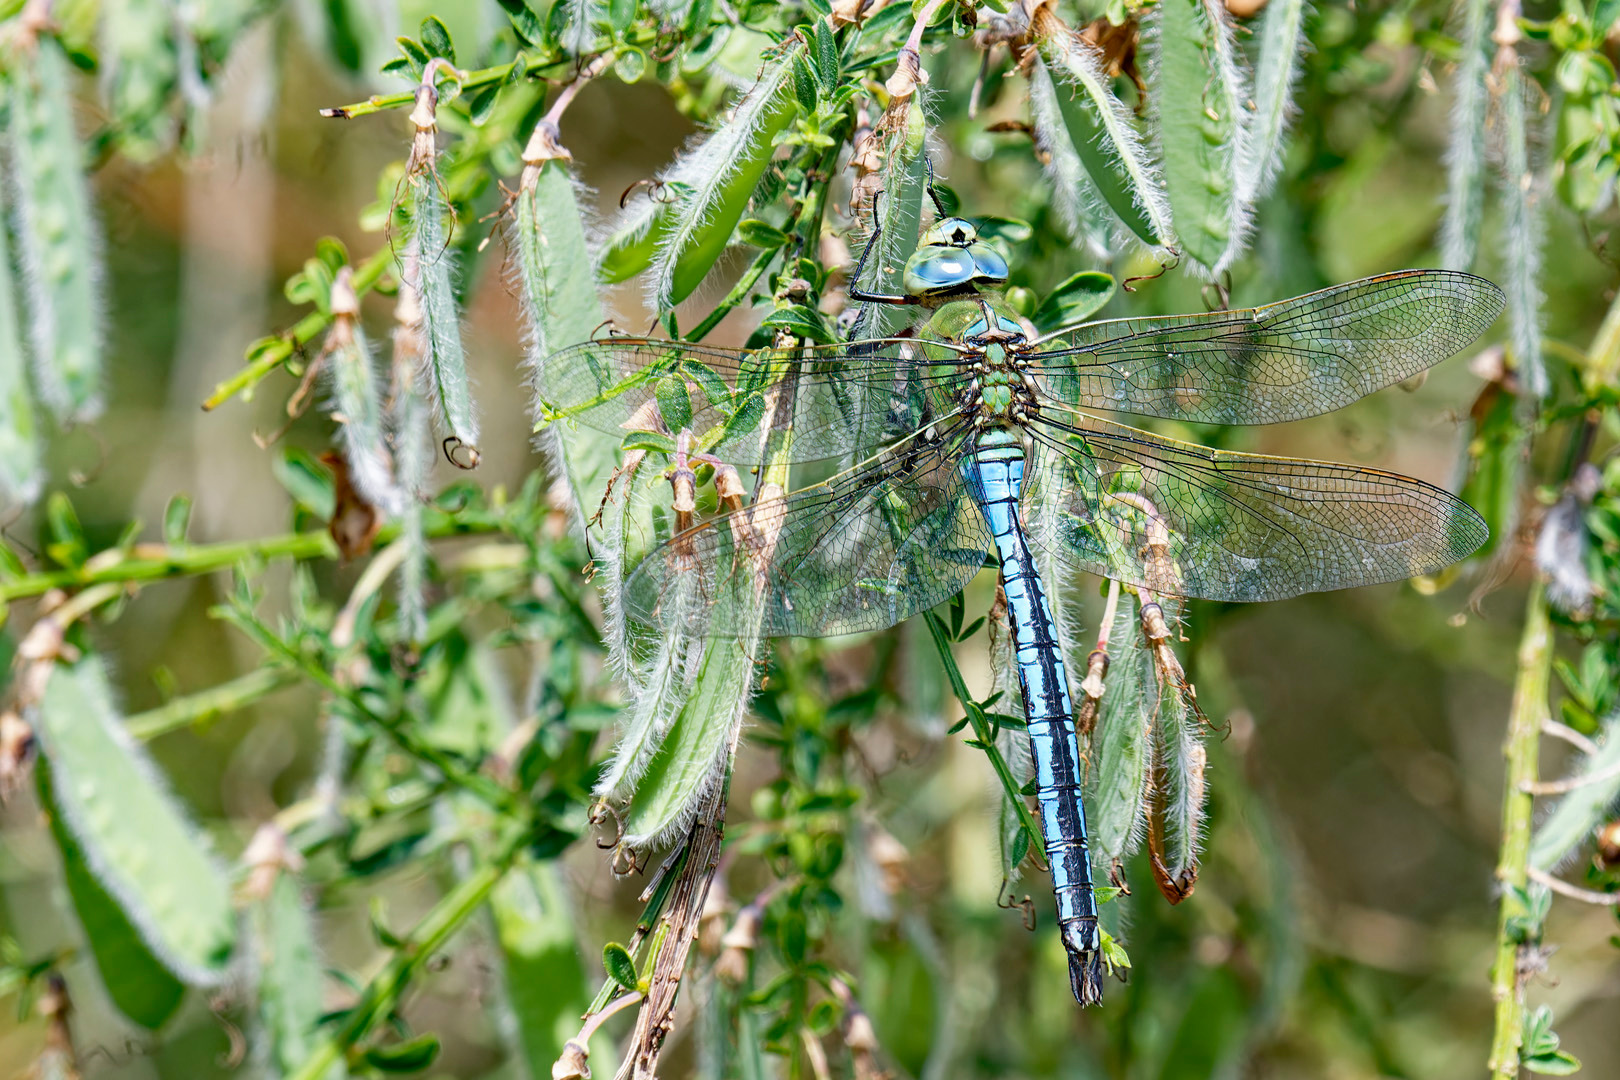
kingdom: Animalia
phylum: Arthropoda
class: Insecta
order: Odonata
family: Aeshnidae
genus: Anax
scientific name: Anax imperator
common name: Stor kejserguldsmed
